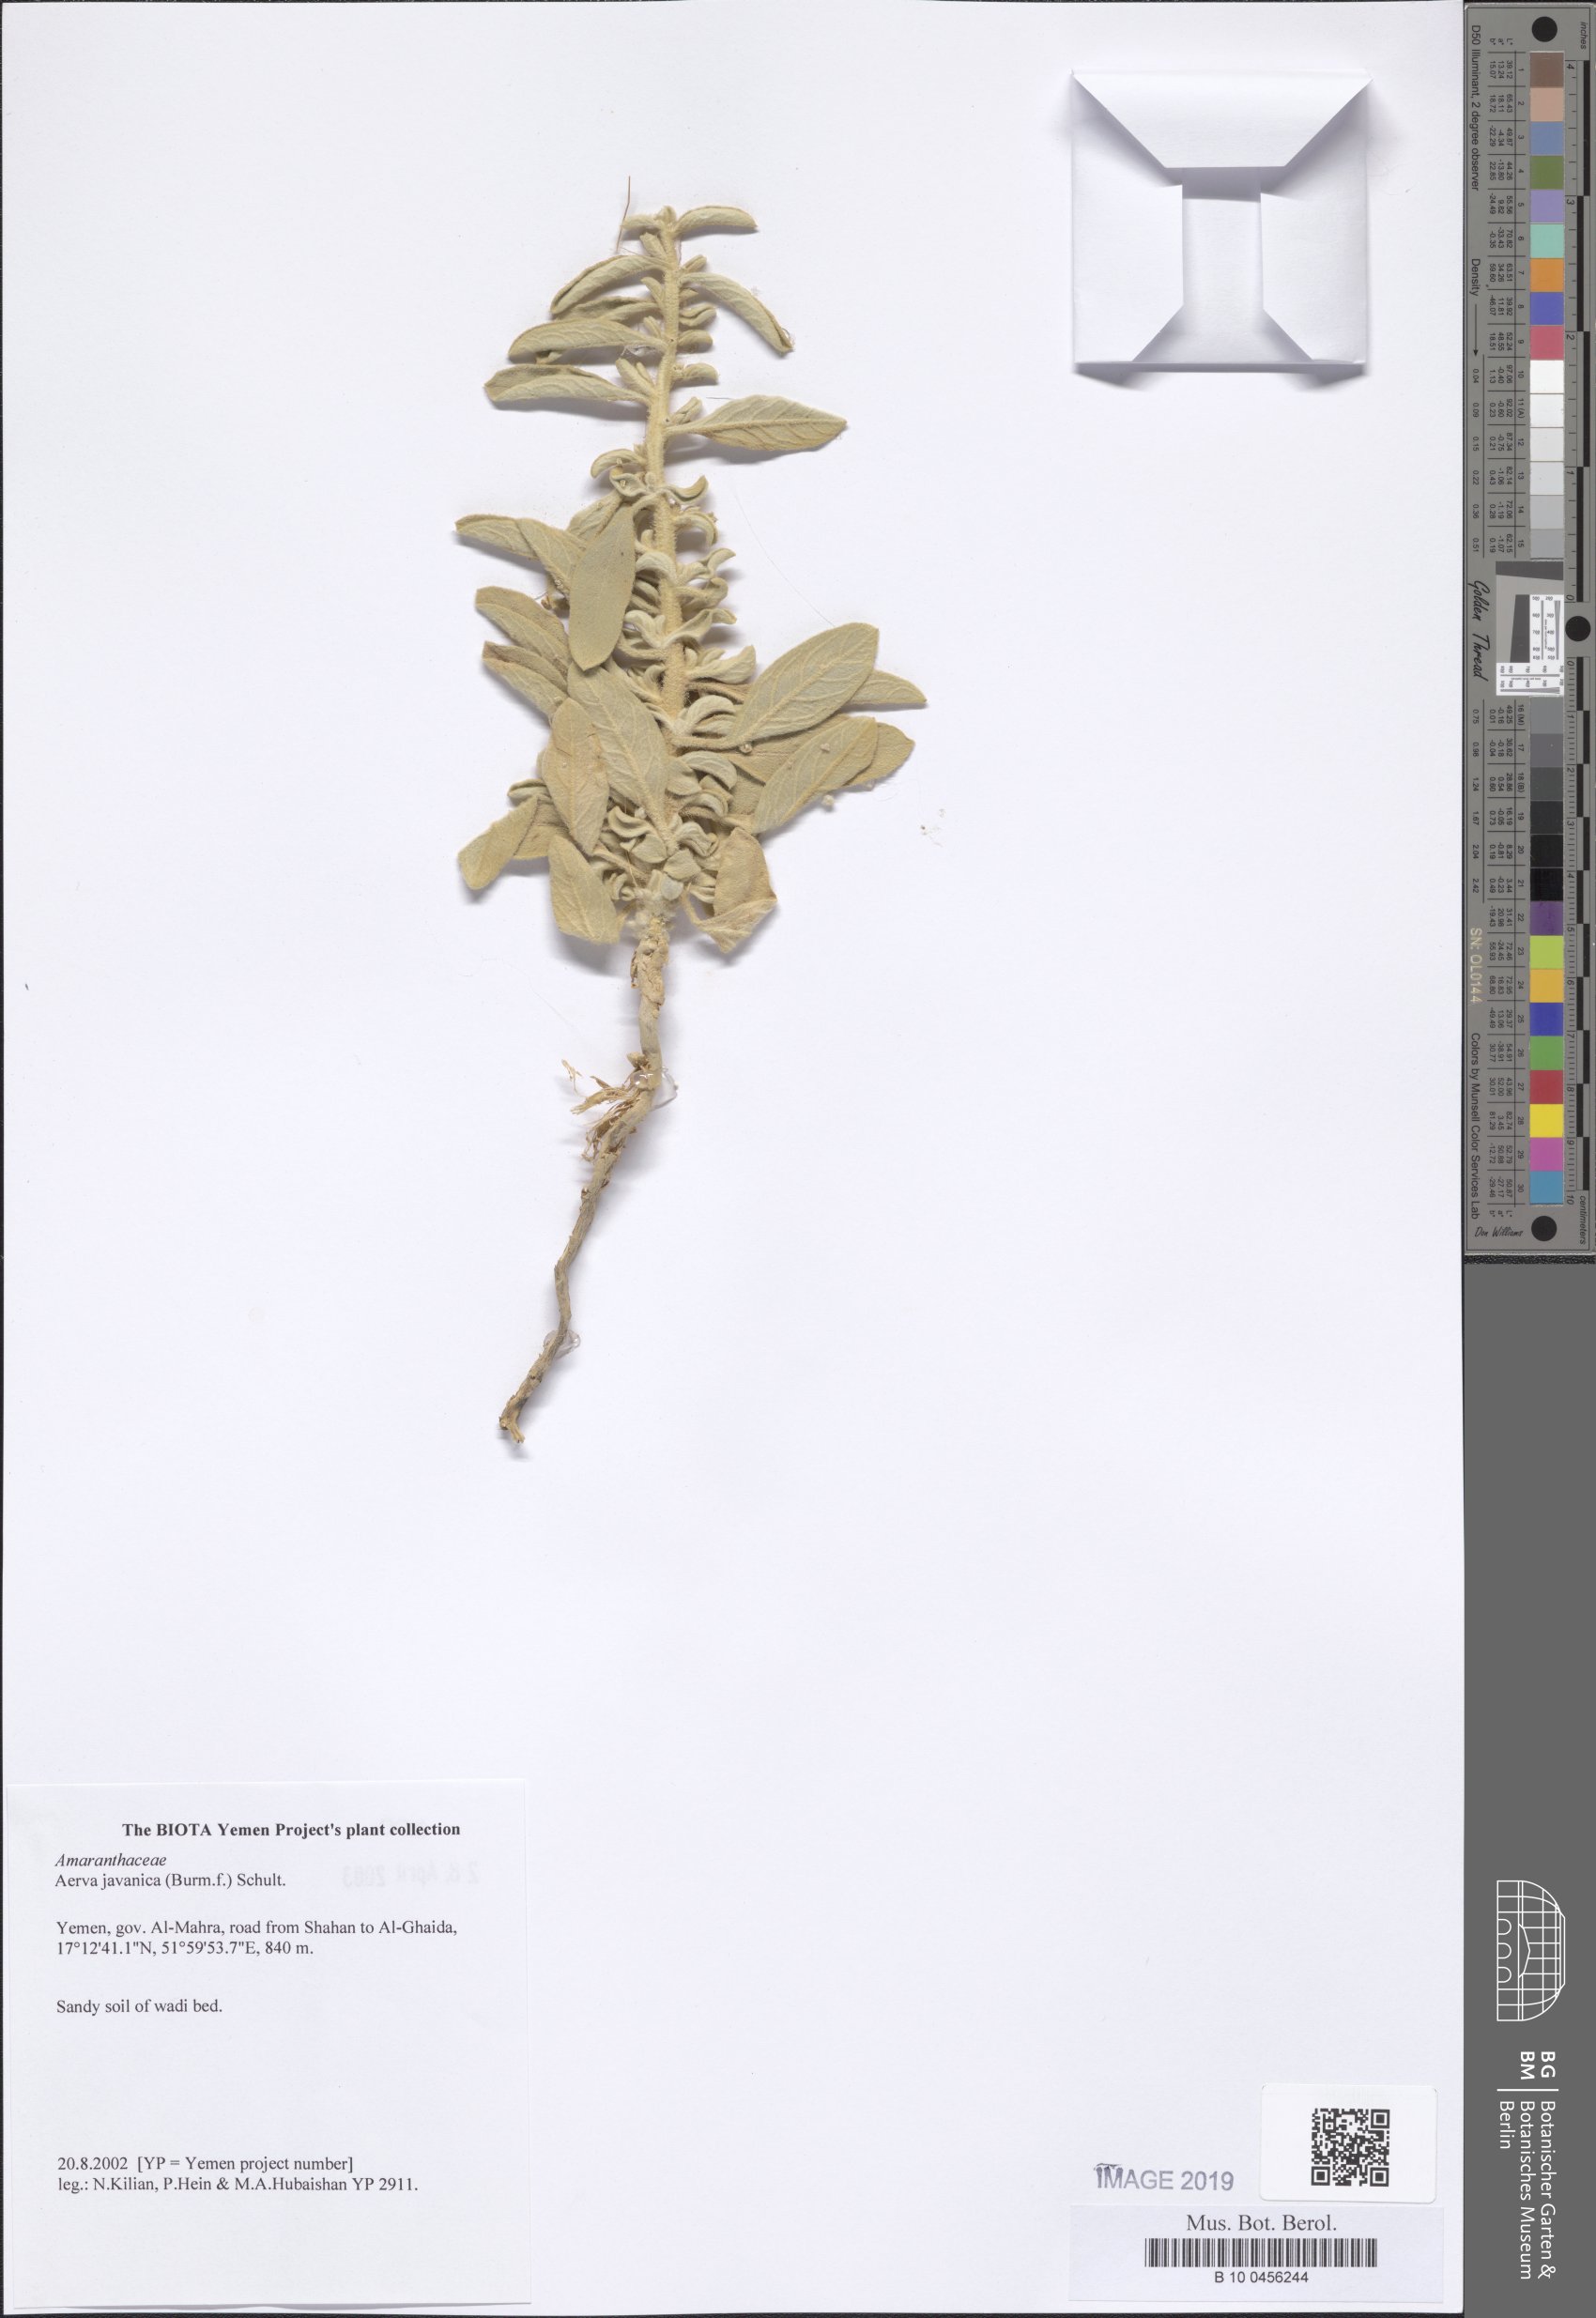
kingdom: Plantae
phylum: Tracheophyta
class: Magnoliopsida
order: Caryophyllales
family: Amaranthaceae
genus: Aerva
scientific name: Aerva javanica
